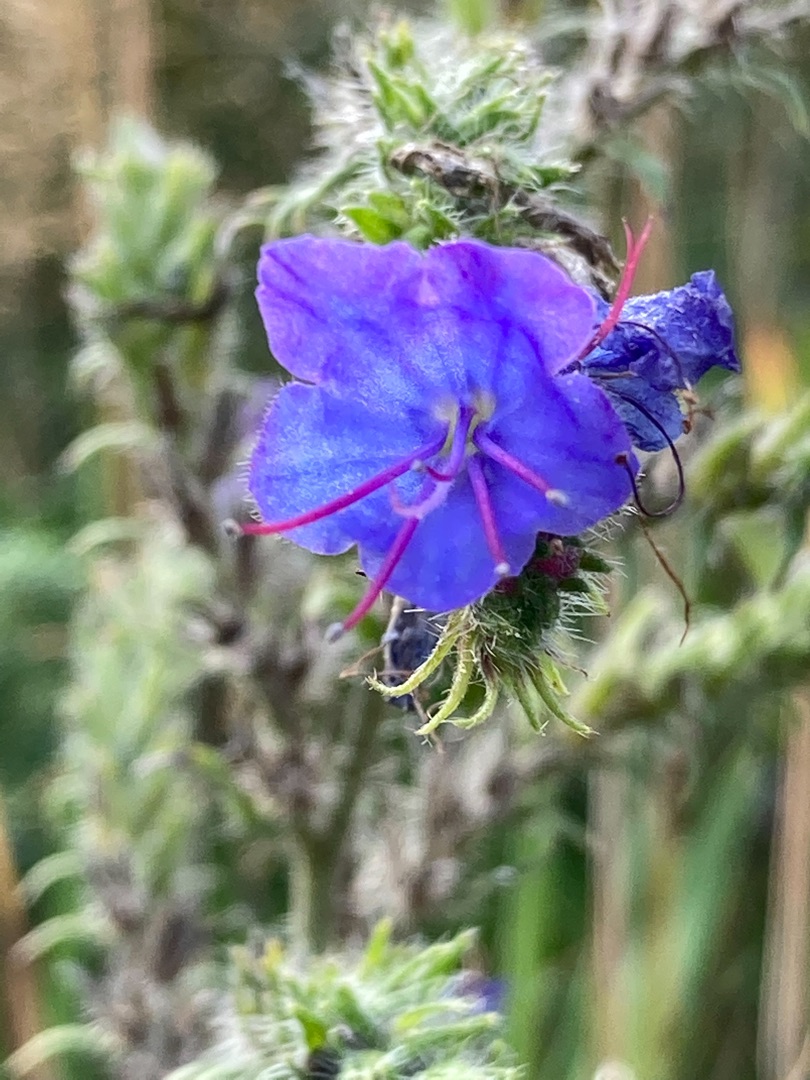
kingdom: Plantae
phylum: Tracheophyta
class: Magnoliopsida
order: Boraginales
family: Boraginaceae
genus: Echium
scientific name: Echium vulgare
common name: Slangehoved
